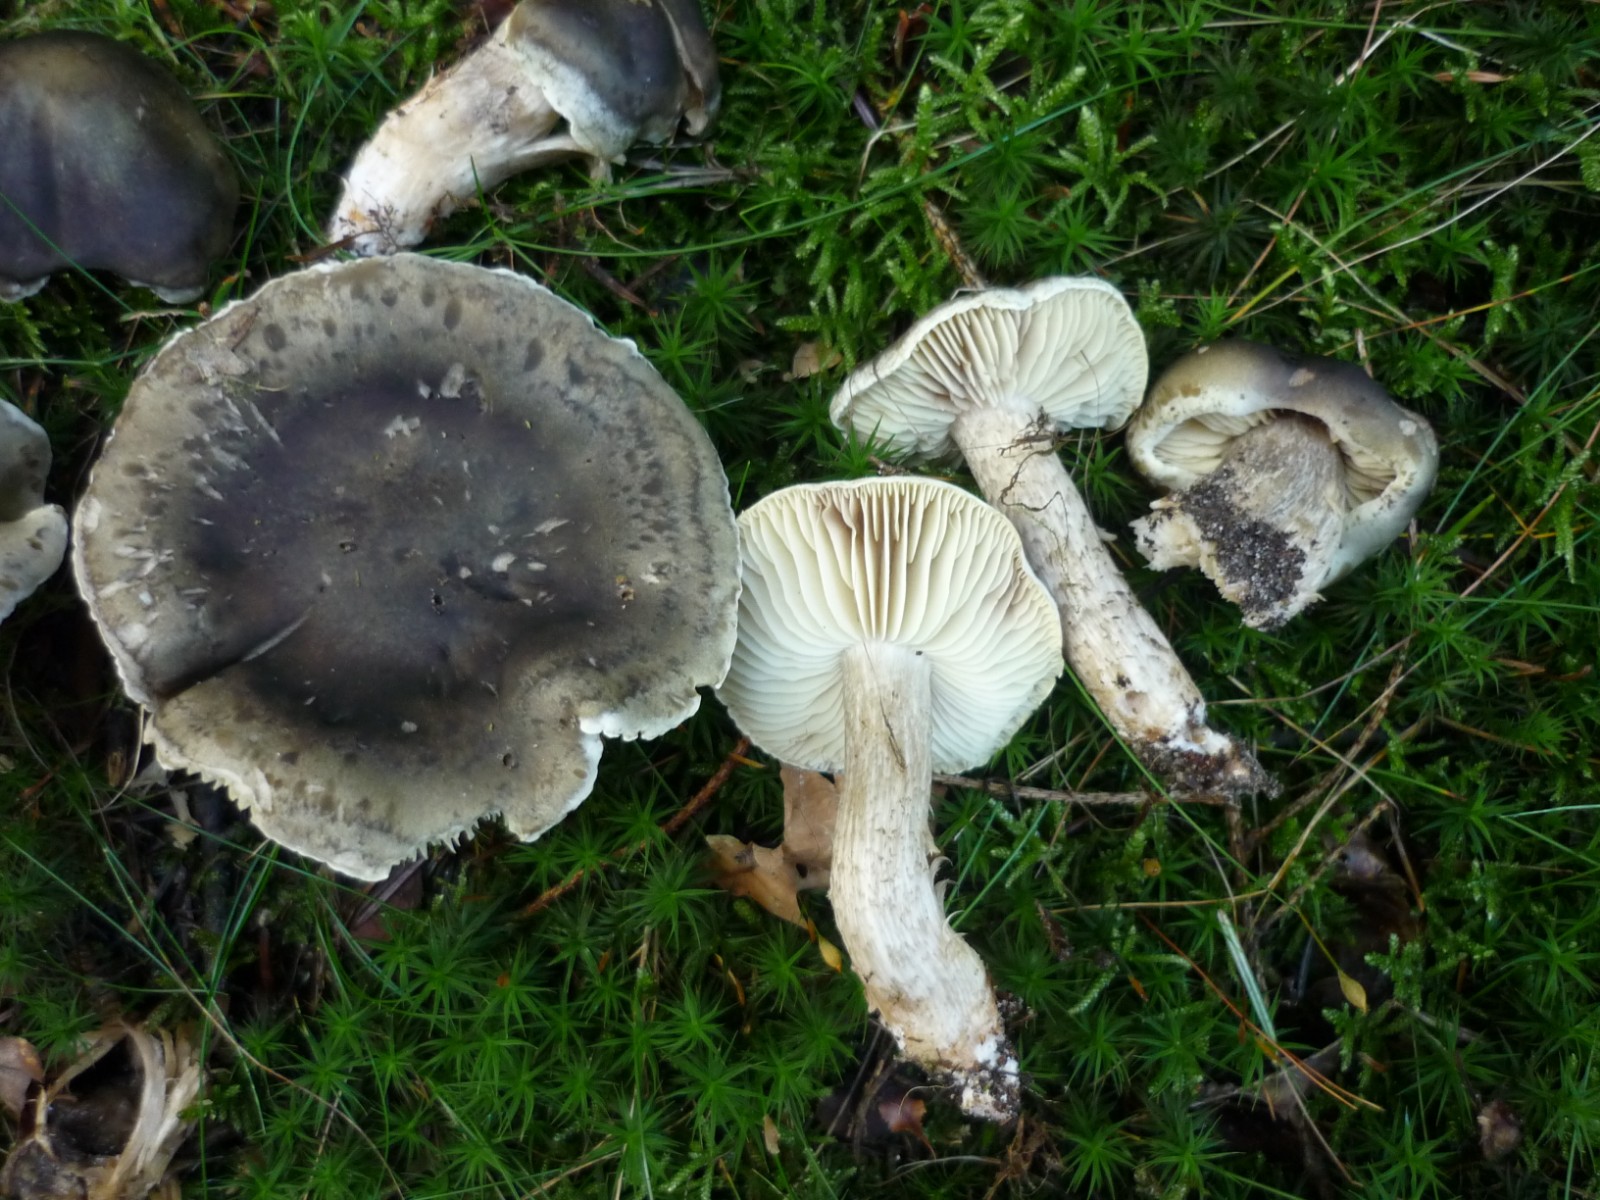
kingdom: Fungi
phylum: Basidiomycota
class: Agaricomycetes
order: Agaricales
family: Tricholomataceae
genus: Tricholoma
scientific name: Tricholoma saponaceum
